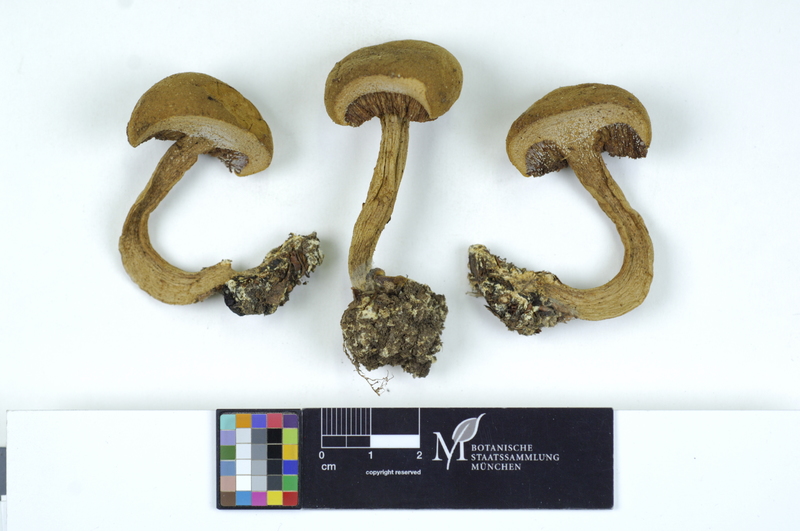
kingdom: Fungi
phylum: Basidiomycota
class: Agaricomycetes
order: Boletales
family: Boletaceae
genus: Boletus
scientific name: Boletus ferrugineus
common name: Rusty bolete
